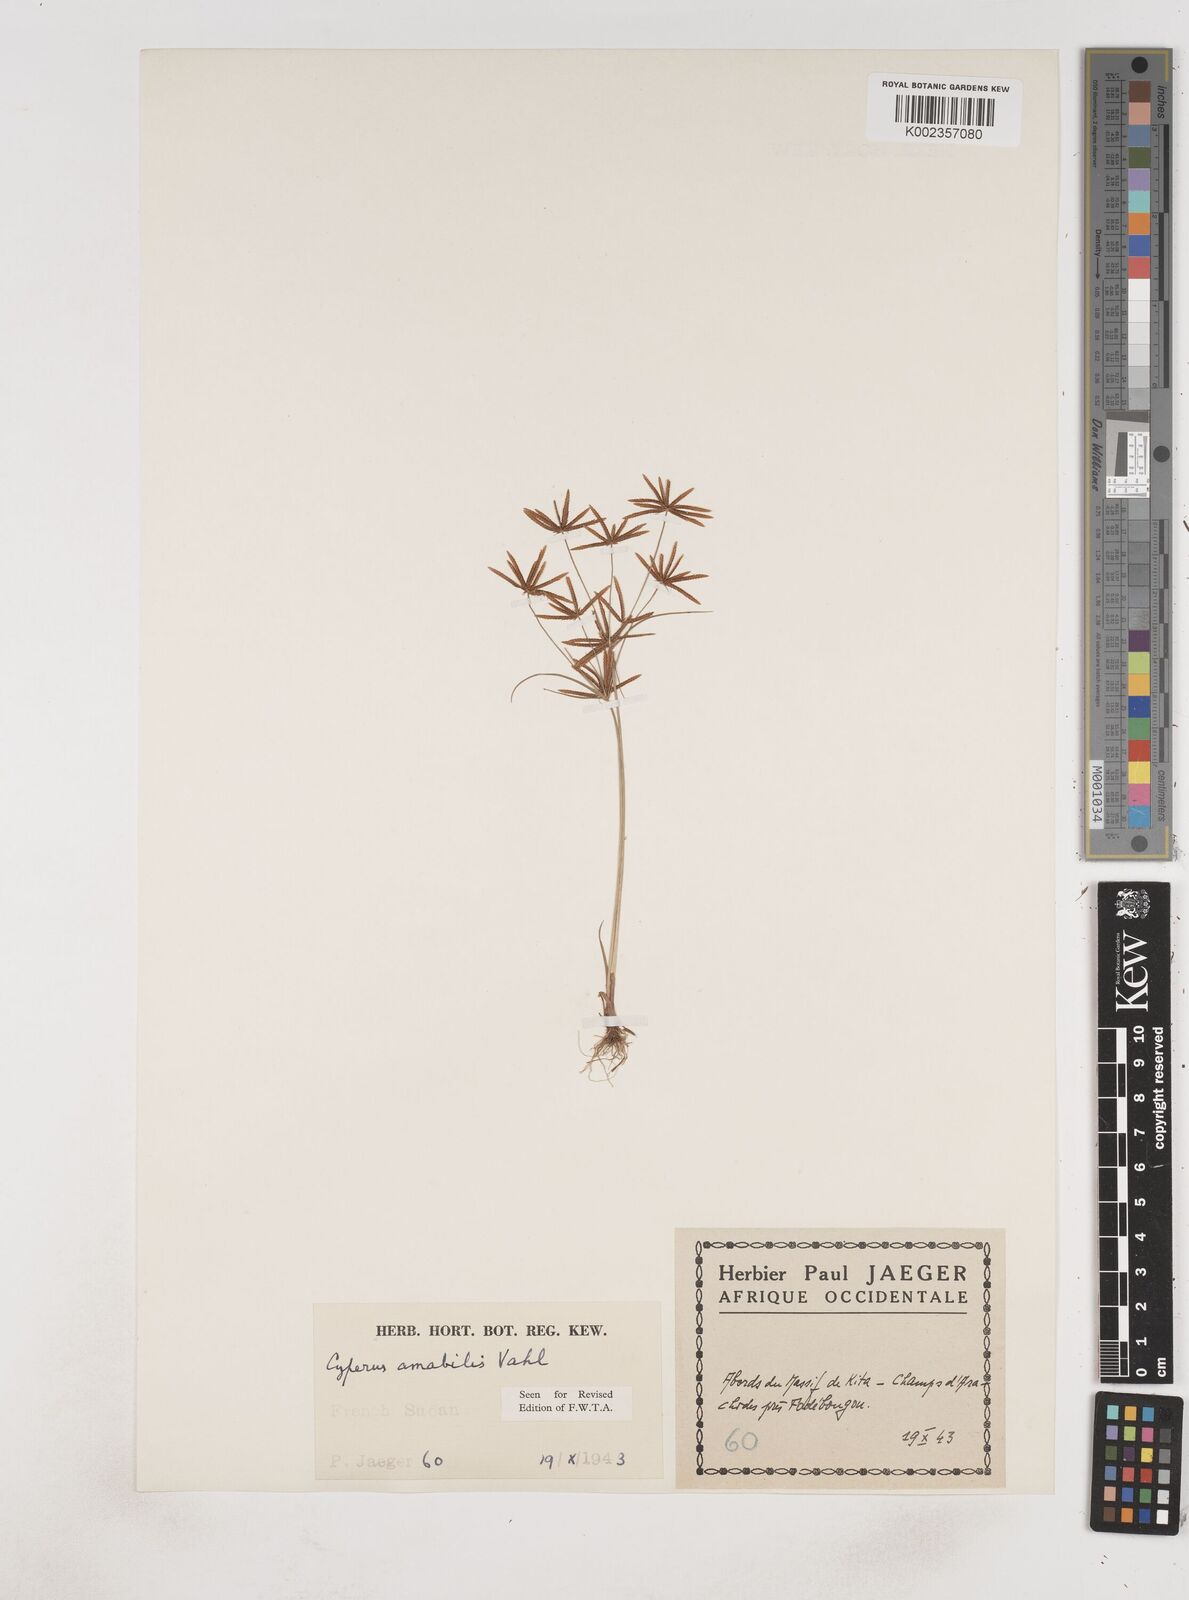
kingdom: Plantae
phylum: Tracheophyta
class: Liliopsida
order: Poales
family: Cyperaceae
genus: Cyperus
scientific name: Cyperus amabilis
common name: Foothill flat sedge
